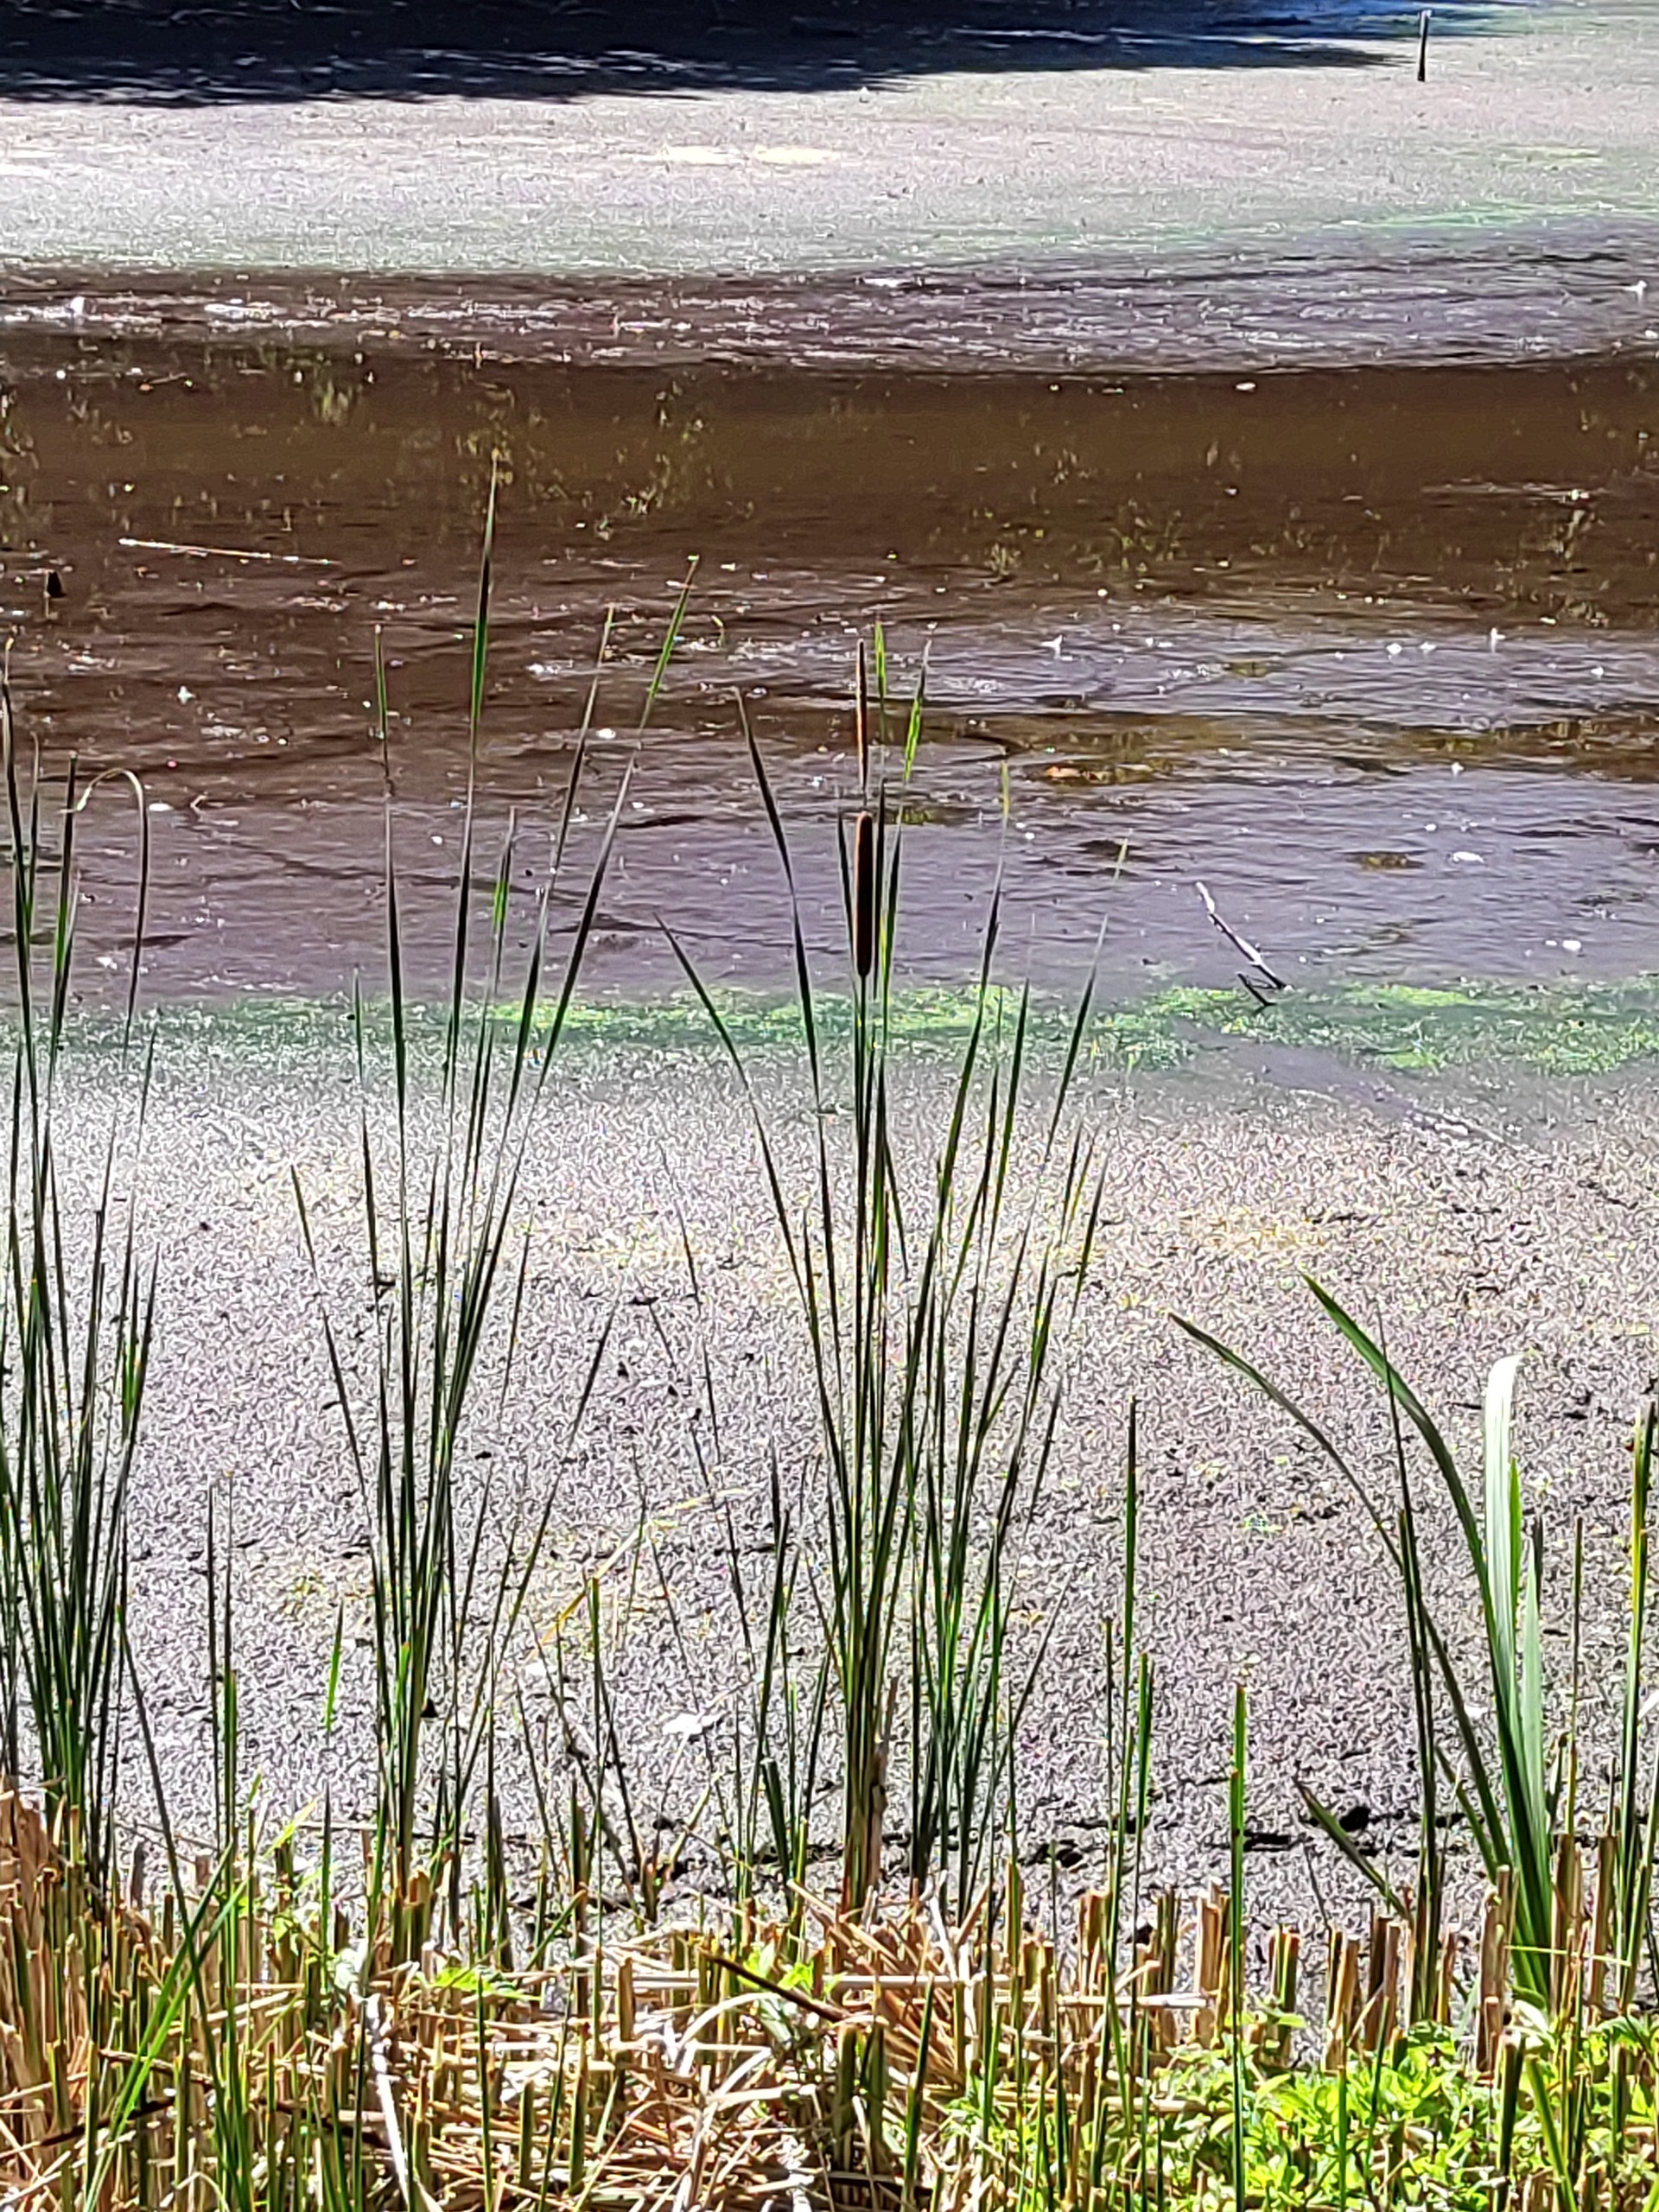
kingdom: Plantae
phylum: Tracheophyta
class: Liliopsida
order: Poales
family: Typhaceae
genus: Typha
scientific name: Typha angustifolia
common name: Smalbladet dunhammer
